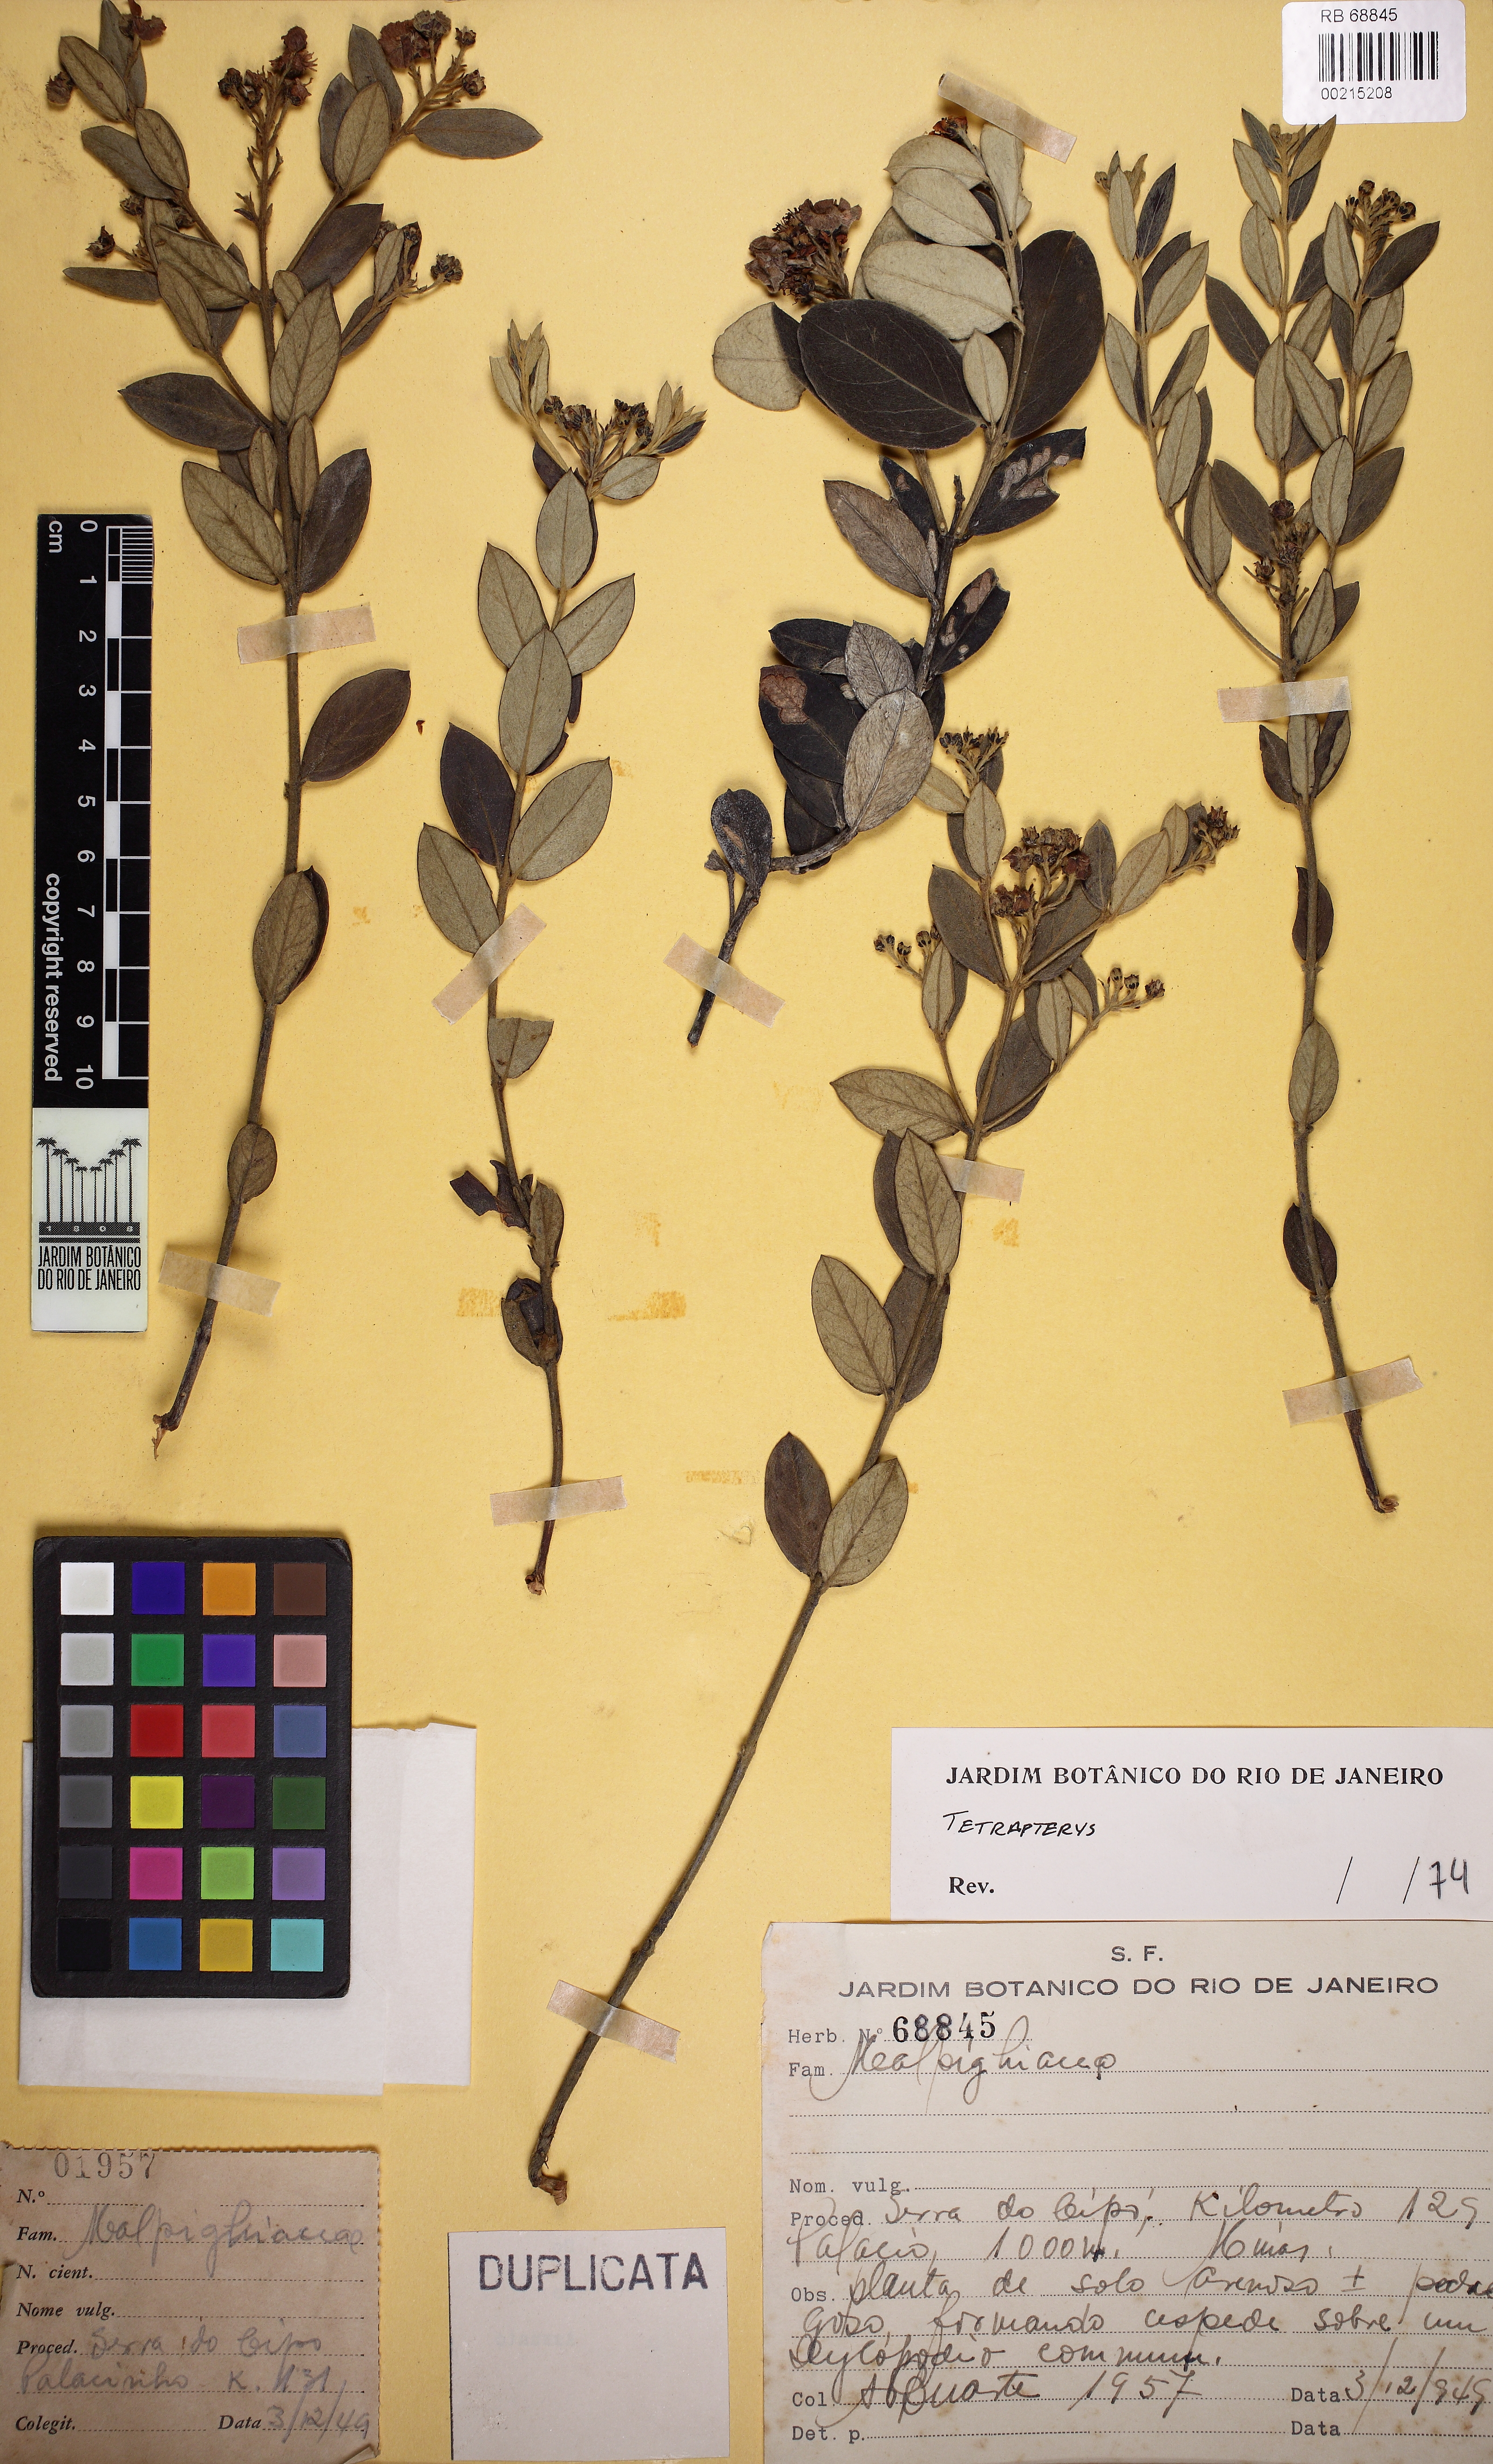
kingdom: Plantae
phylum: Tracheophyta
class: Magnoliopsida
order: Malpighiales
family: Malpighiaceae
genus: Glicophyllum
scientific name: Glicophyllum microphyllum
